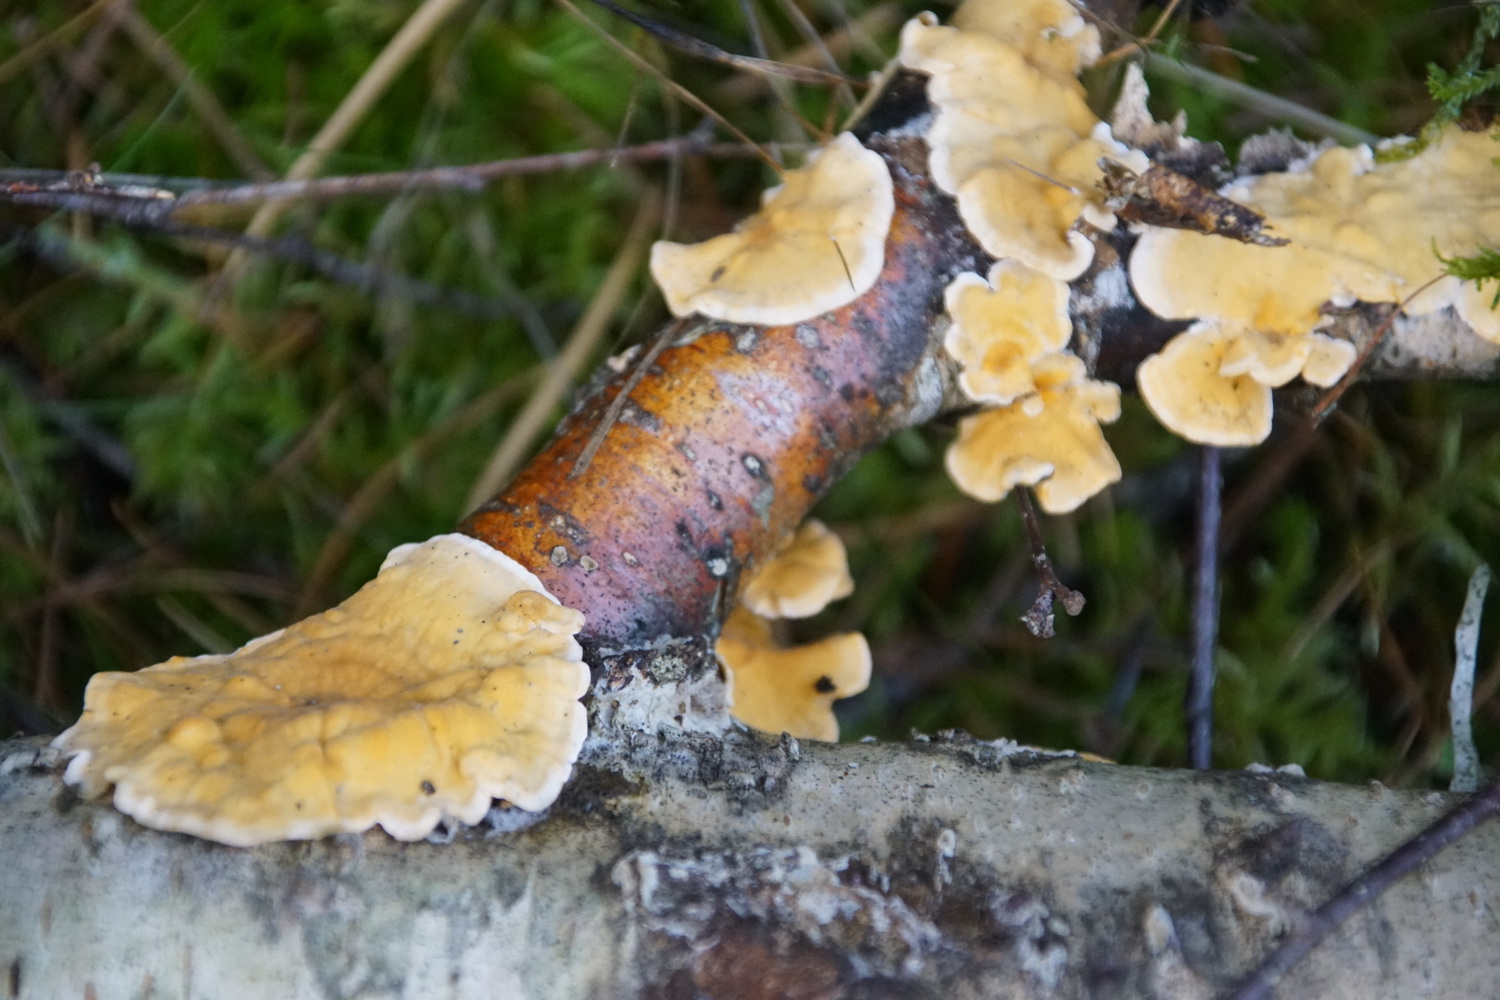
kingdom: Fungi
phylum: Basidiomycota
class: Agaricomycetes
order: Russulales
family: Stereaceae
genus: Stereum
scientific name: Stereum hirsutum
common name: håret lædersvamp
